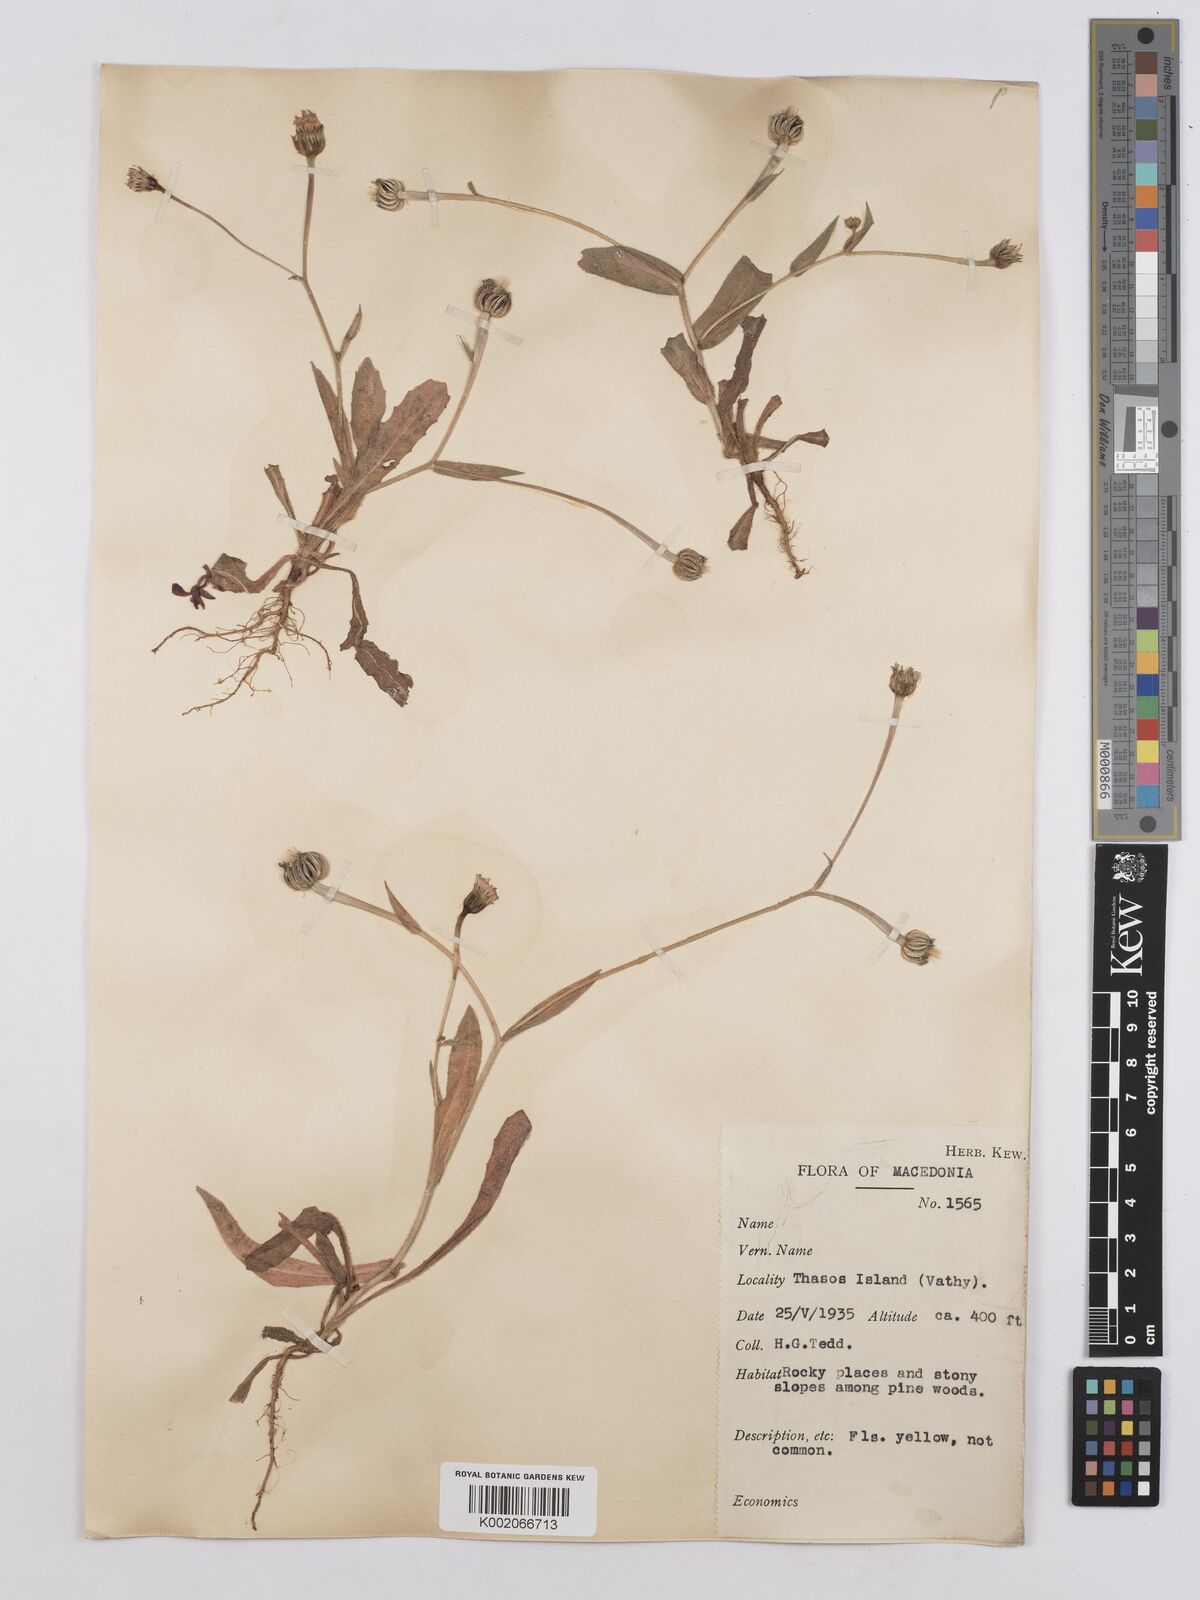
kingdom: Plantae
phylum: Tracheophyta
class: Magnoliopsida
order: Asterales
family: Asteraceae
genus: Hedypnois
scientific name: Hedypnois rhagadioloides
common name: Cretan weed
